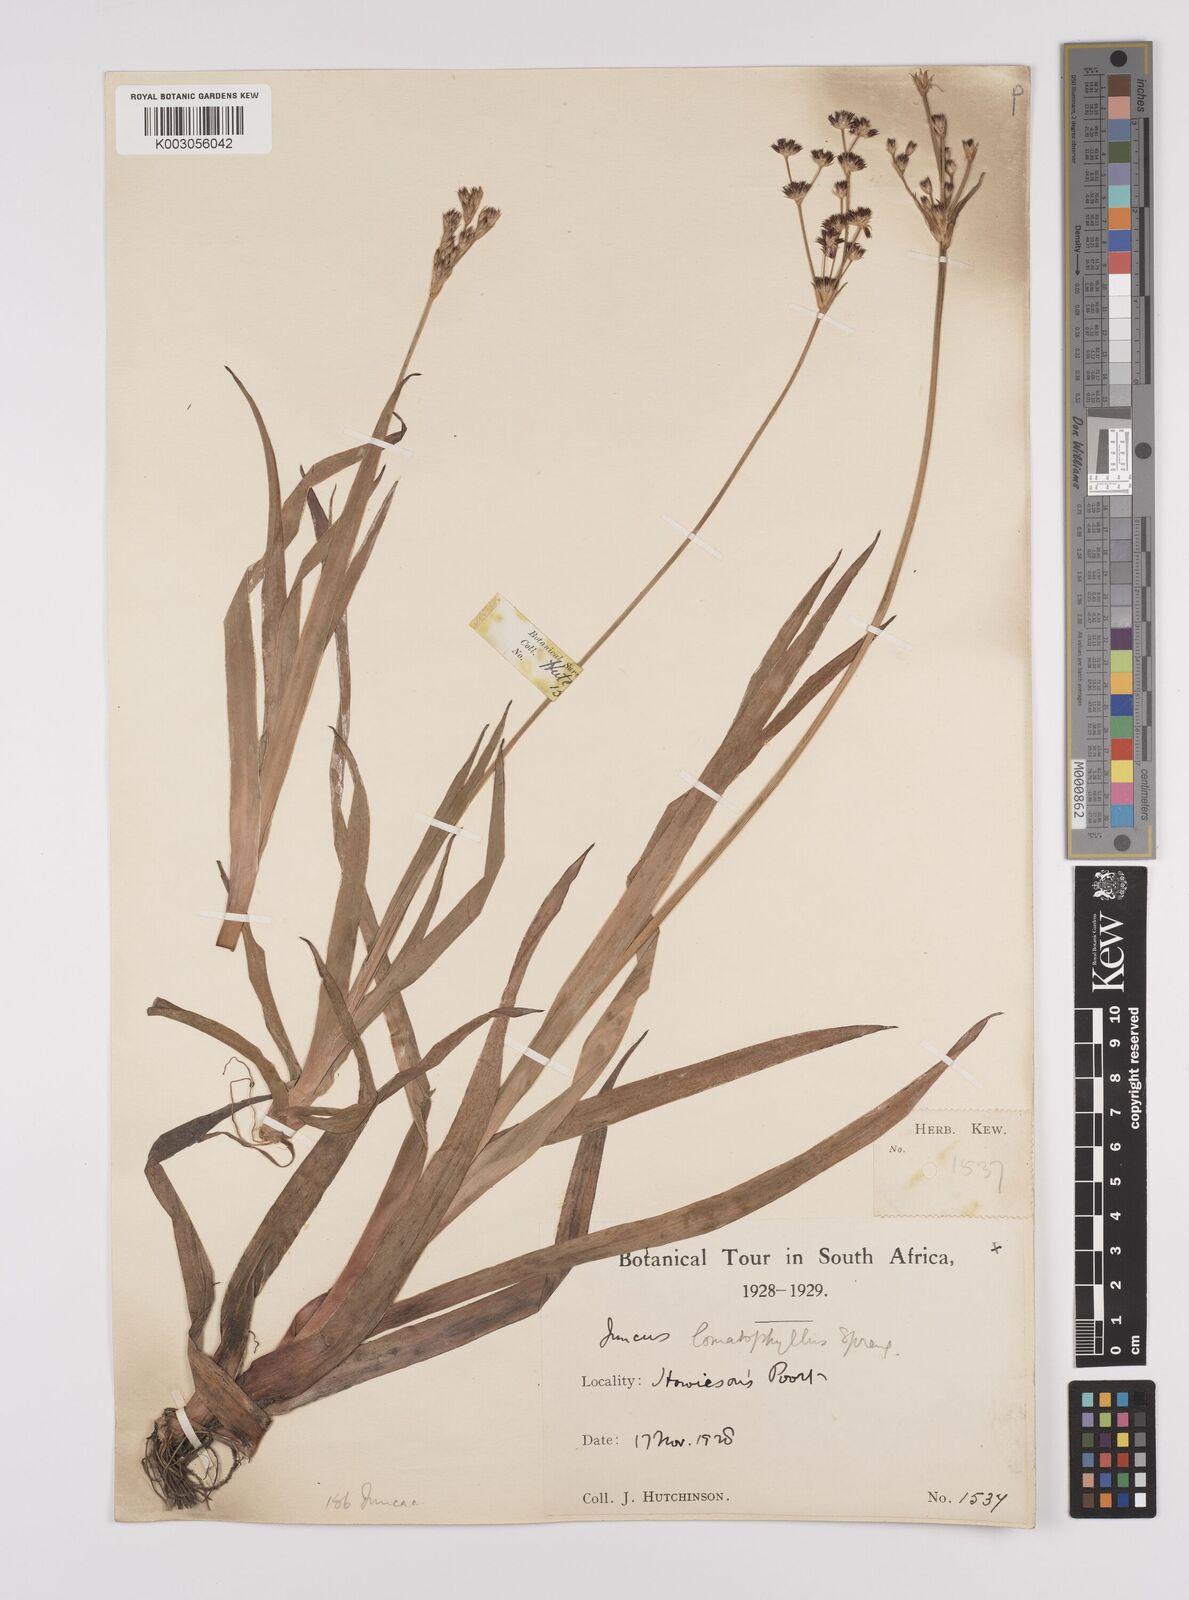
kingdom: Plantae
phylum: Tracheophyta
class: Liliopsida
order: Poales
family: Juncaceae
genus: Juncus
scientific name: Juncus lomatophyllus
